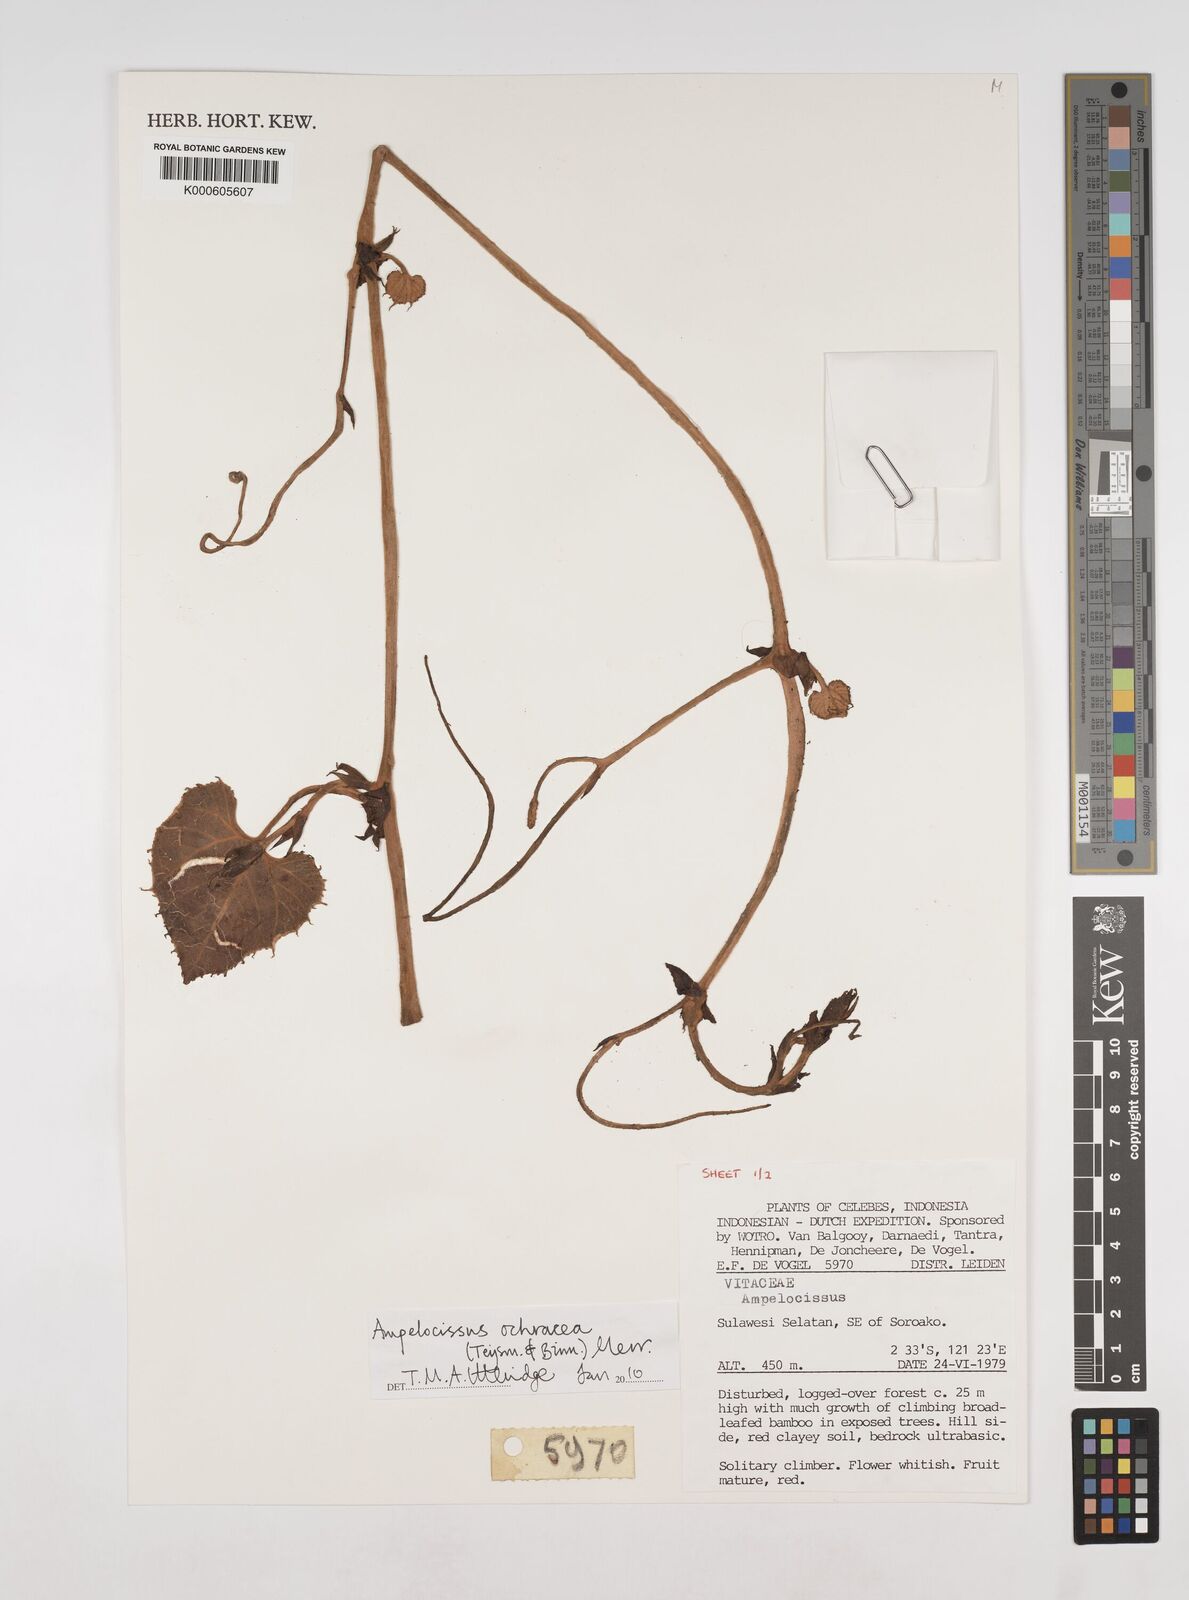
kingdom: Plantae
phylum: Tracheophyta
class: Magnoliopsida
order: Vitales
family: Vitaceae
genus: Ampelocissus
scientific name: Ampelocissus ochracea
